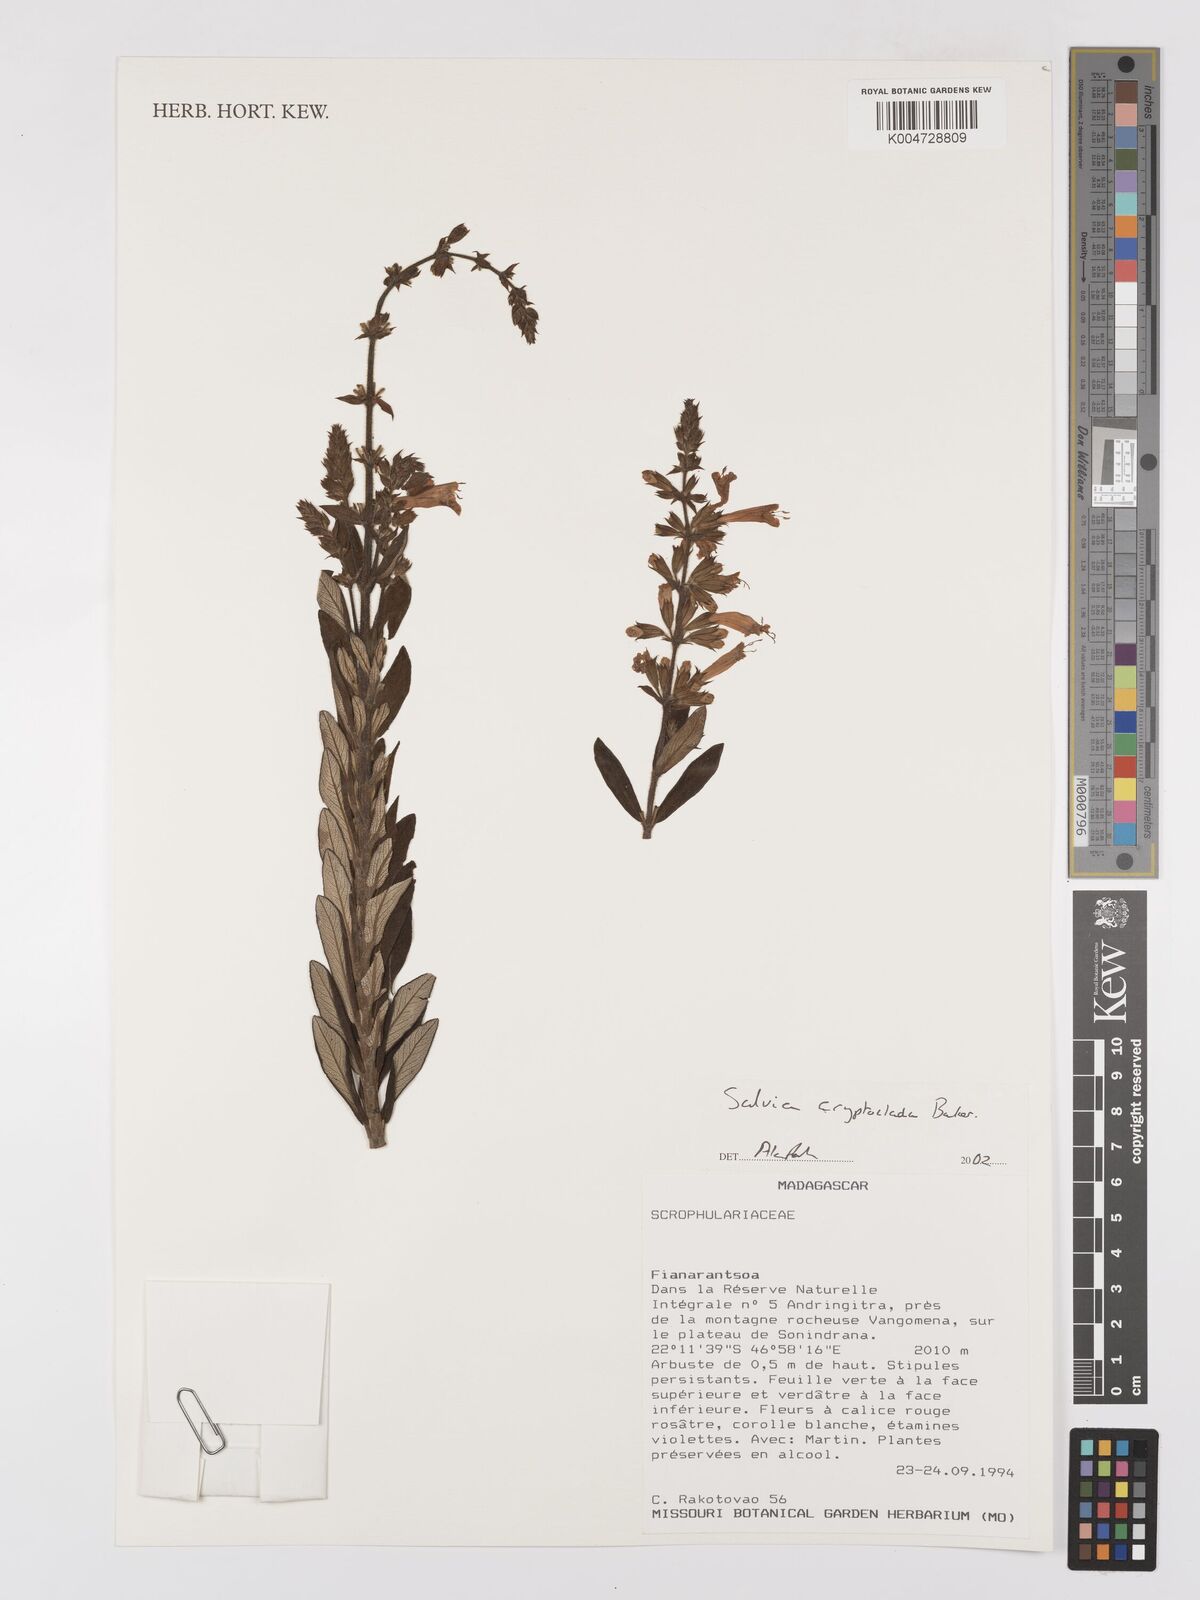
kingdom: Plantae
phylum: Tracheophyta
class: Magnoliopsida
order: Lamiales
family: Lamiaceae
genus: Salvia
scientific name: Salvia cryptoclada
